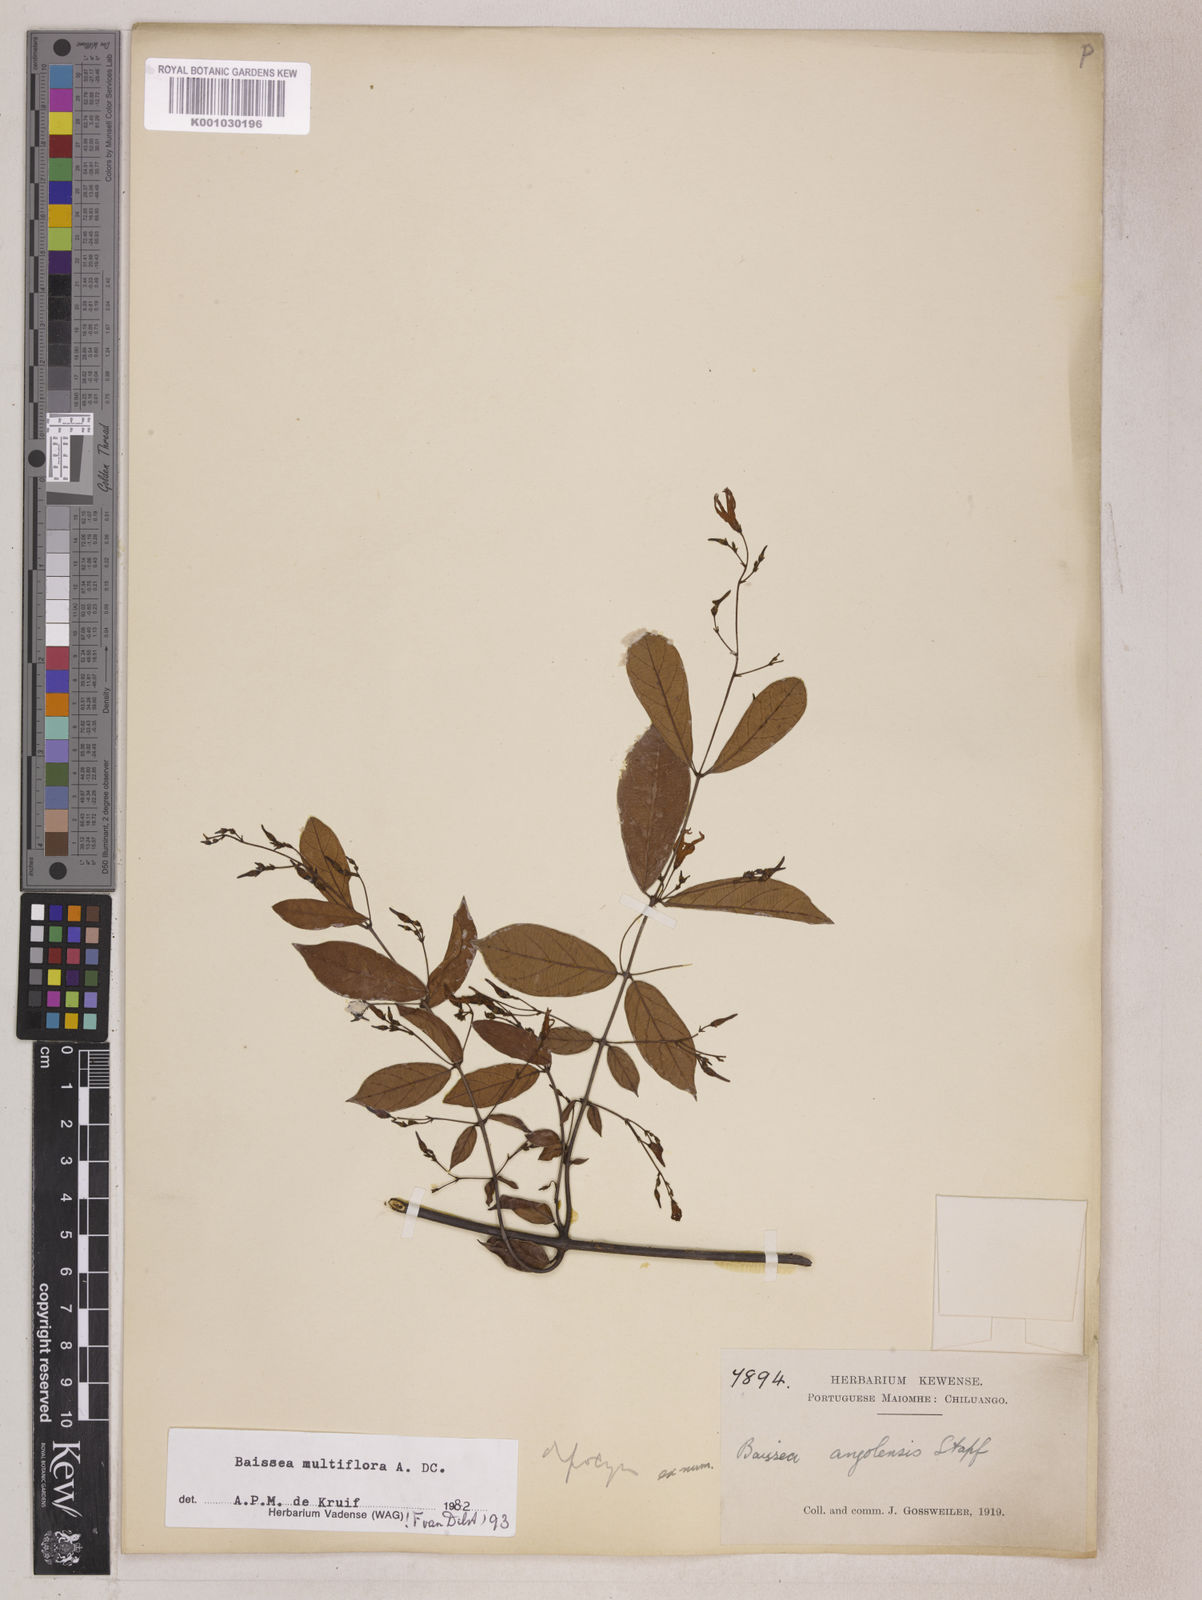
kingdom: Plantae
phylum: Tracheophyta
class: Magnoliopsida
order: Gentianales
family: Apocynaceae
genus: Baissea
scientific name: Baissea multiflora
